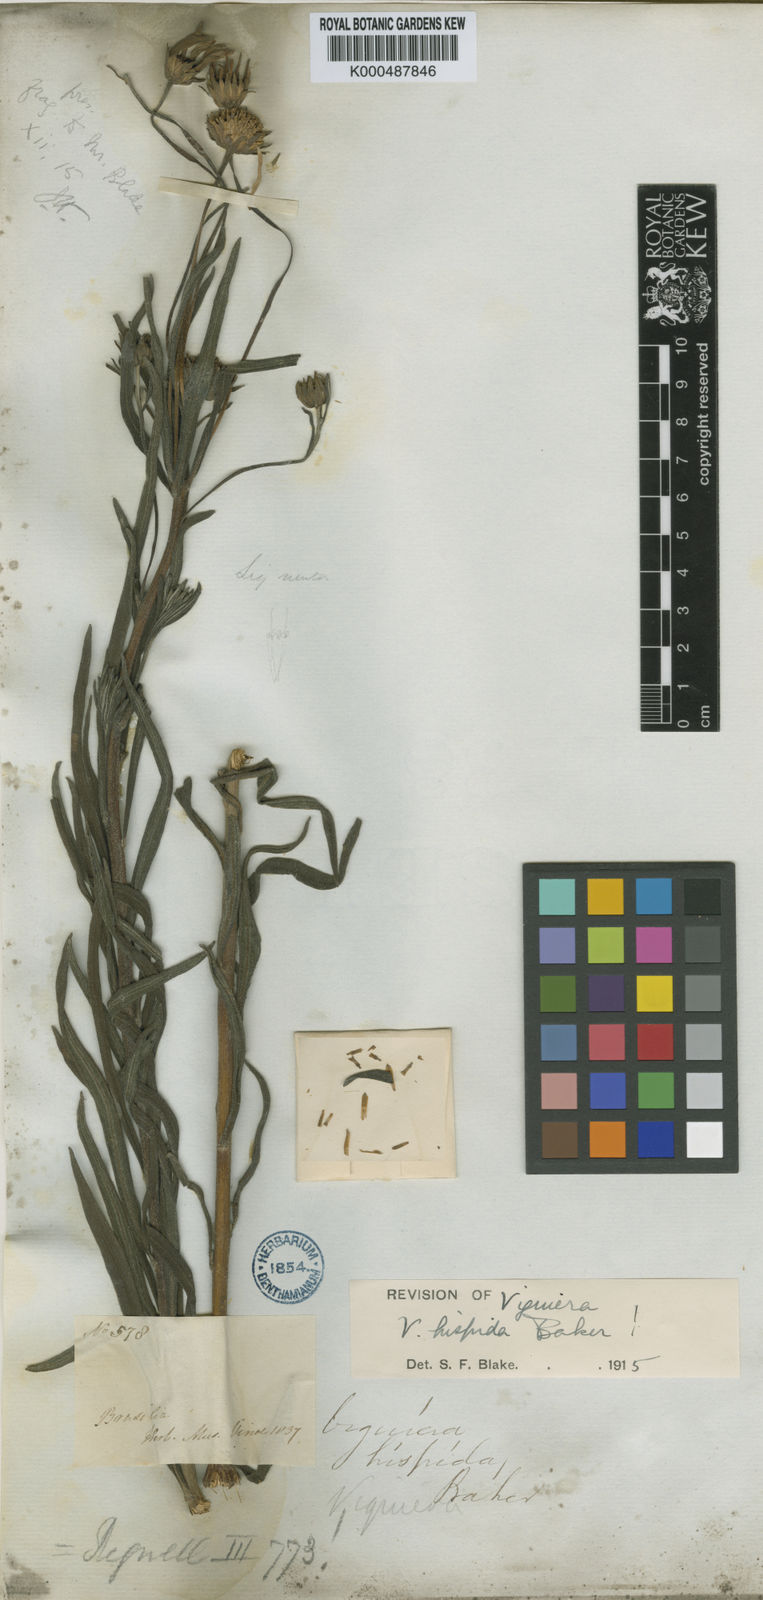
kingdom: Plantae
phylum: Tracheophyta
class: Magnoliopsida
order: Asterales
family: Asteraceae
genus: Aldama
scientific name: Aldama goyazii
